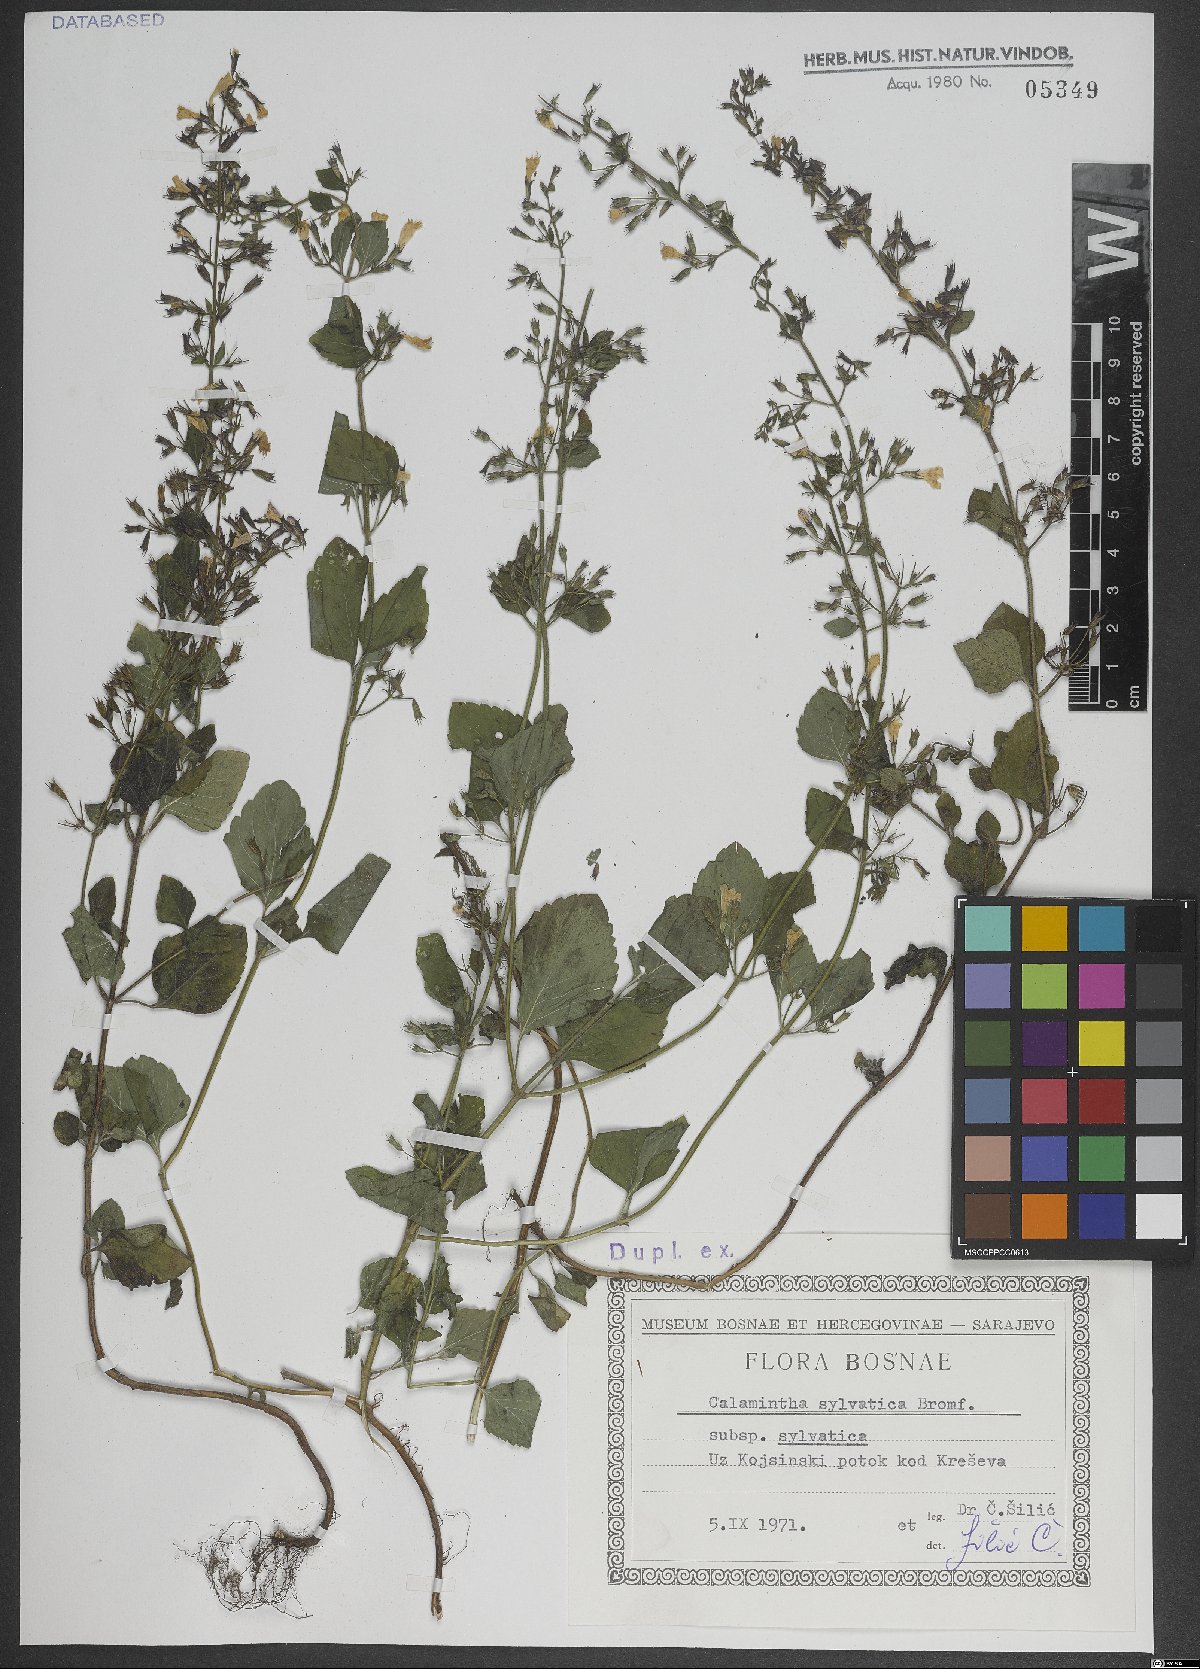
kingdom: Plantae
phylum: Tracheophyta
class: Magnoliopsida
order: Lamiales
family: Lamiaceae
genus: Clinopodium
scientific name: Clinopodium menthifolium
